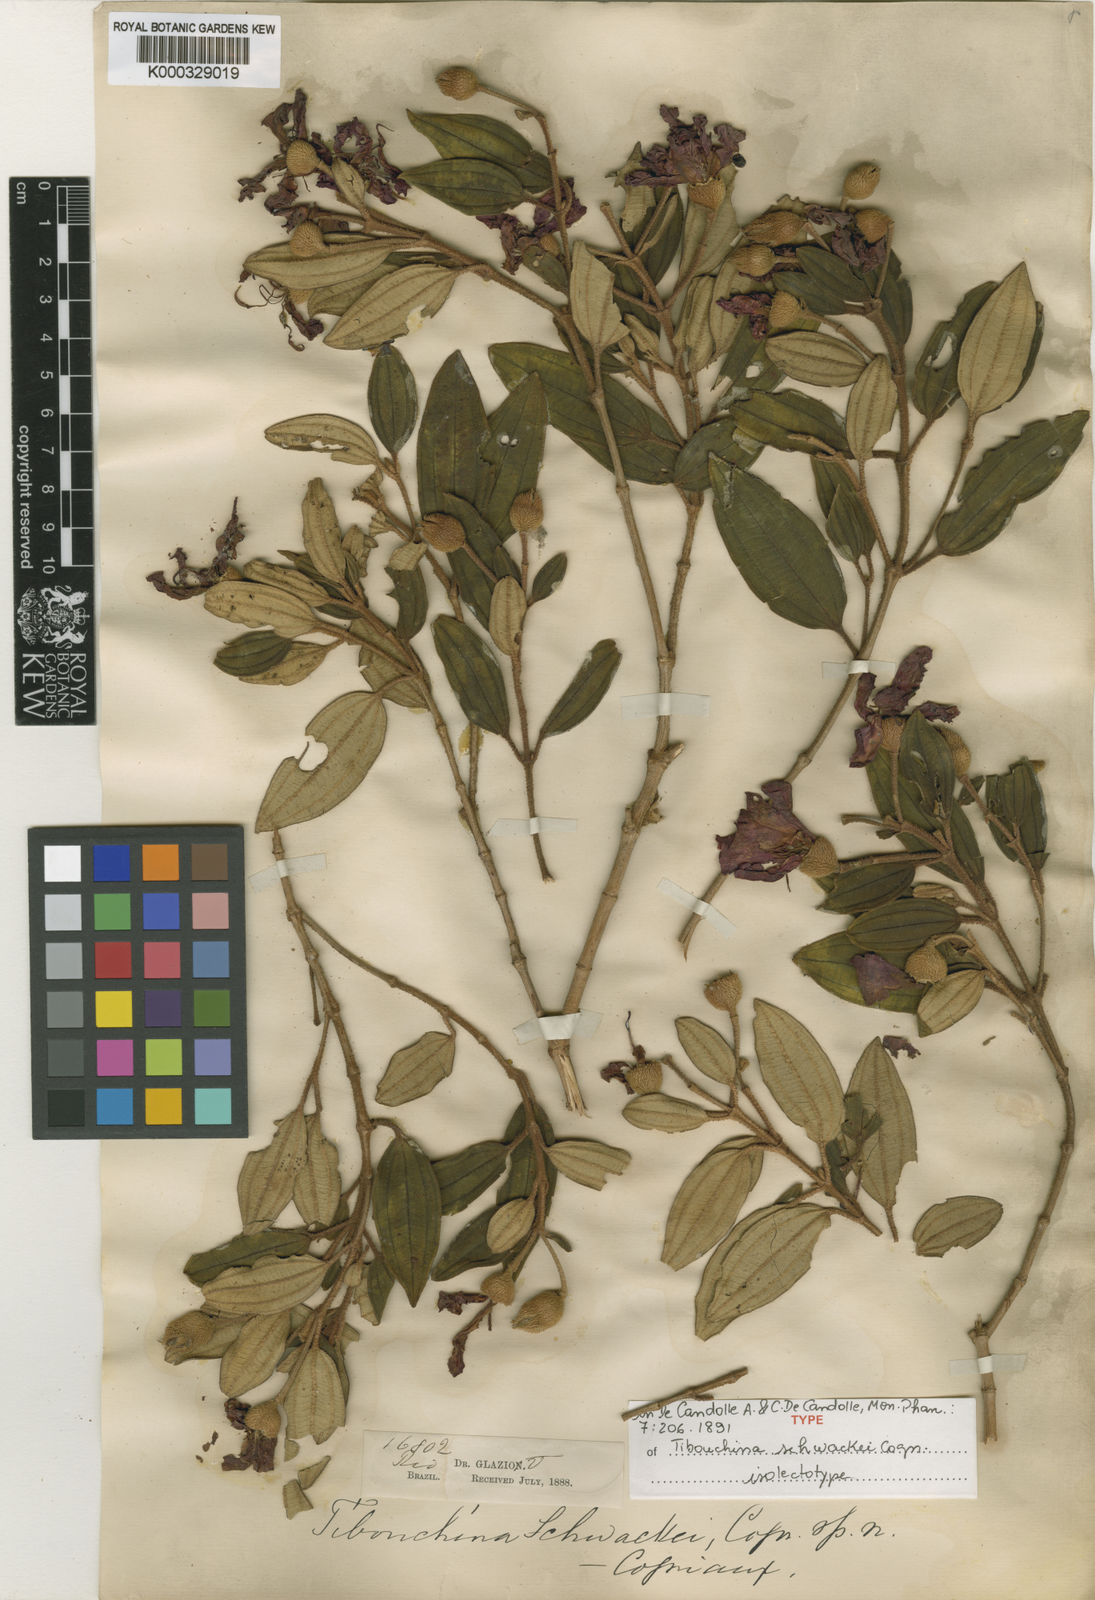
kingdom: Plantae
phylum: Tracheophyta
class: Magnoliopsida
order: Myrtales
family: Melastomataceae
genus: Pleroma
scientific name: Pleroma schwackei
